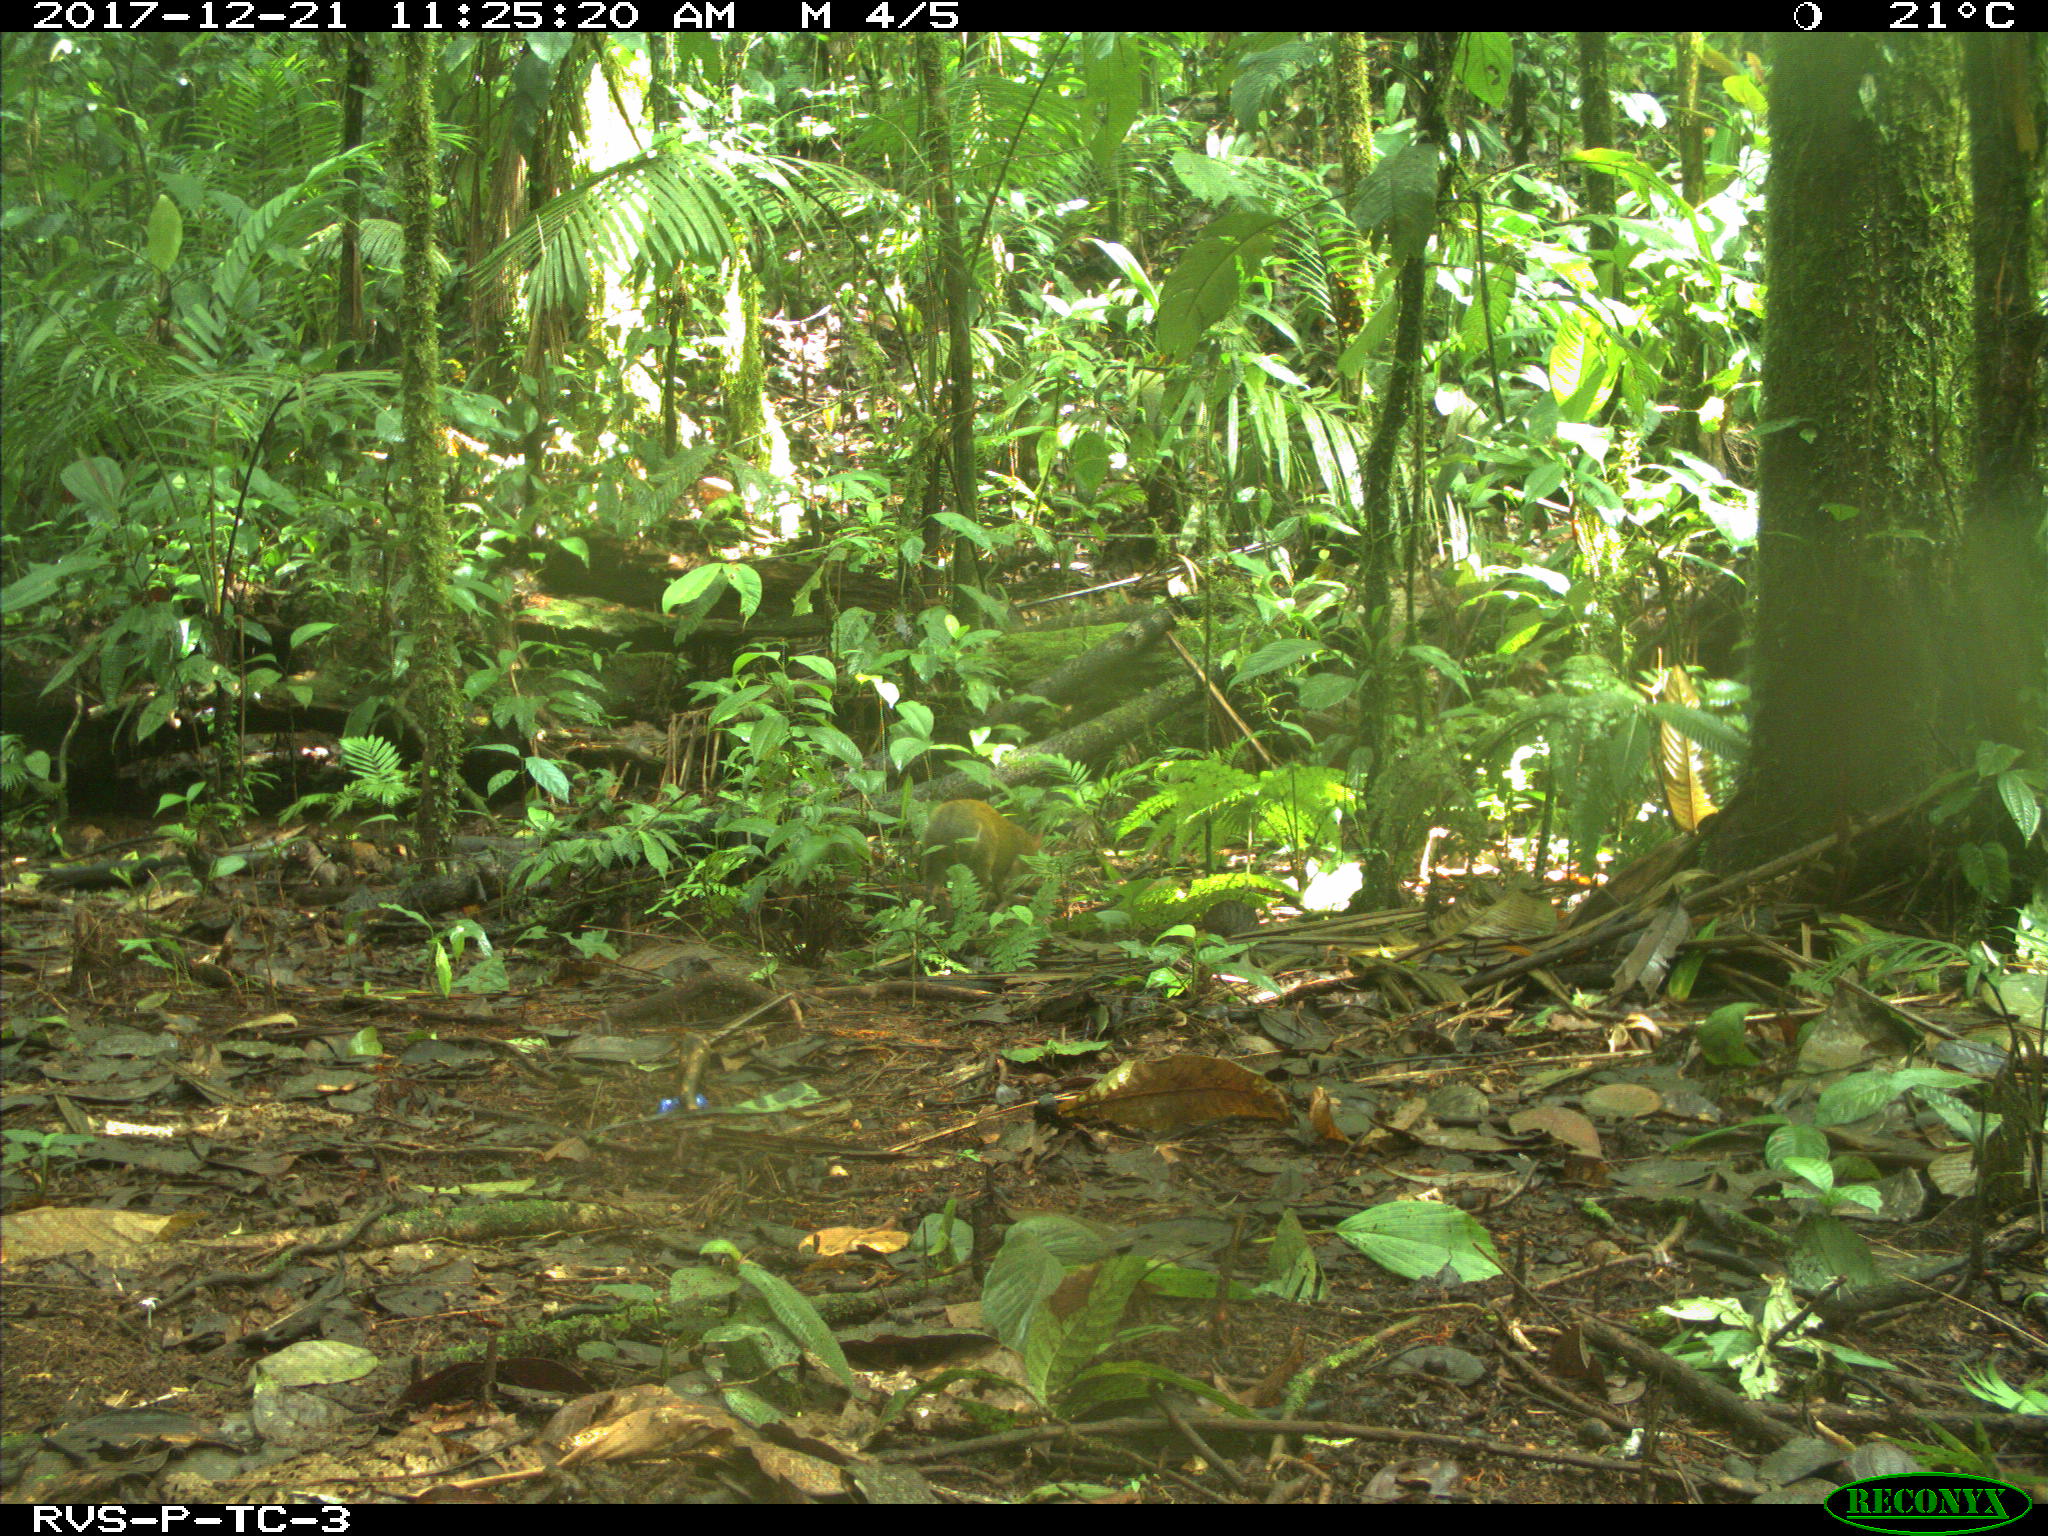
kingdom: Animalia
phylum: Chordata
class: Mammalia
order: Rodentia
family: Dasyproctidae
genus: Dasyprocta
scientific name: Dasyprocta punctata
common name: Central american agouti
